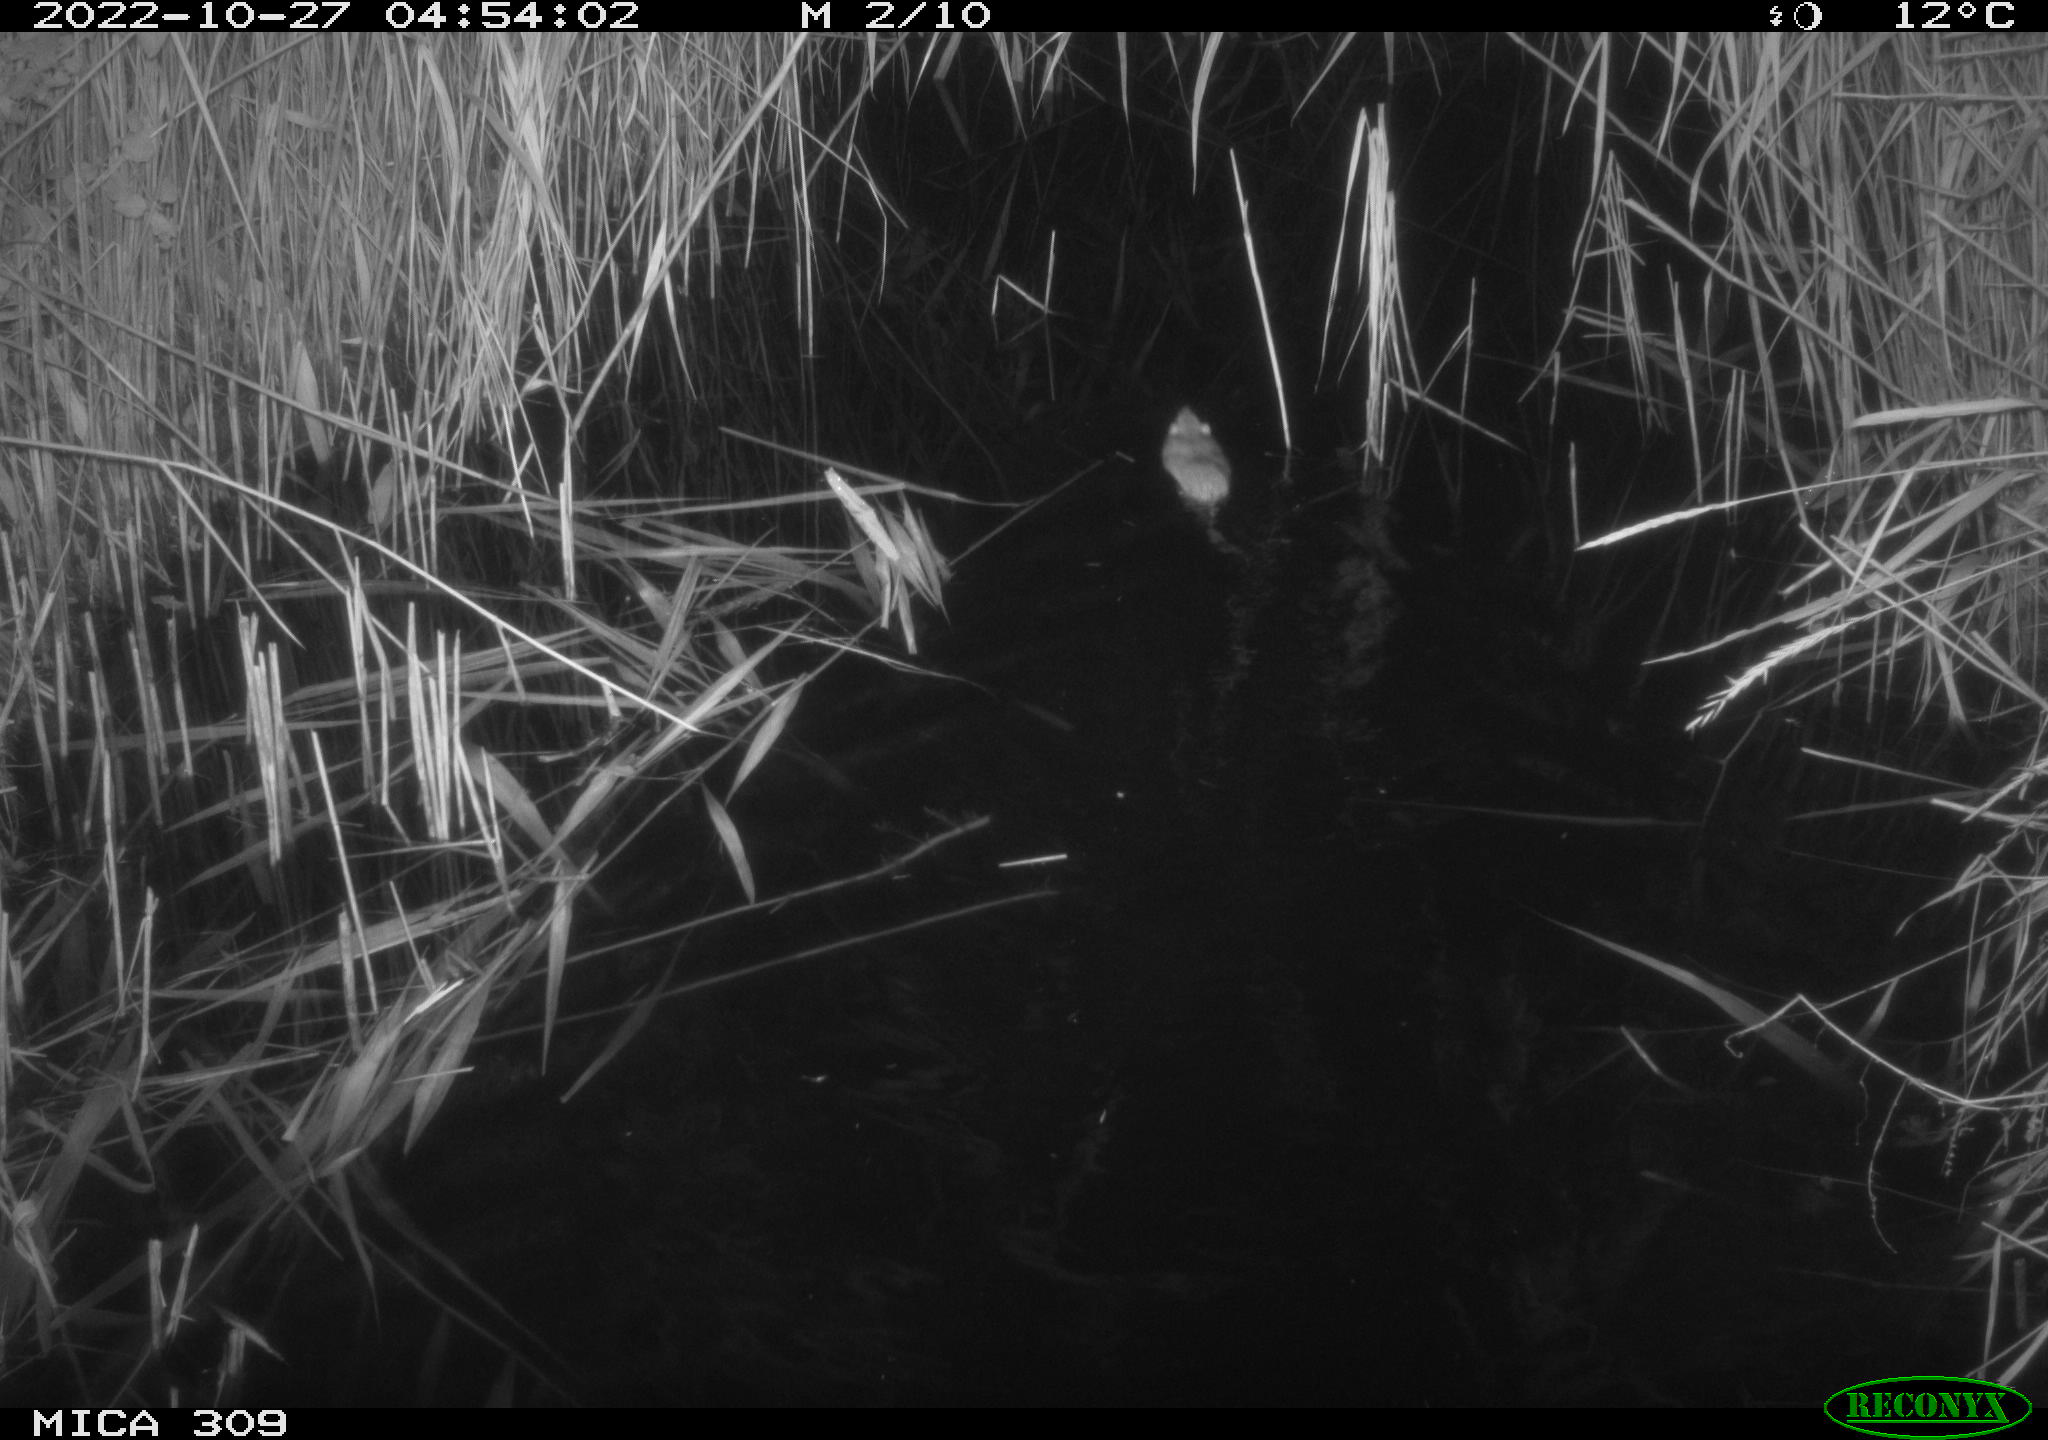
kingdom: Animalia
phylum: Chordata
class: Mammalia
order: Rodentia
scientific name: Rodentia
